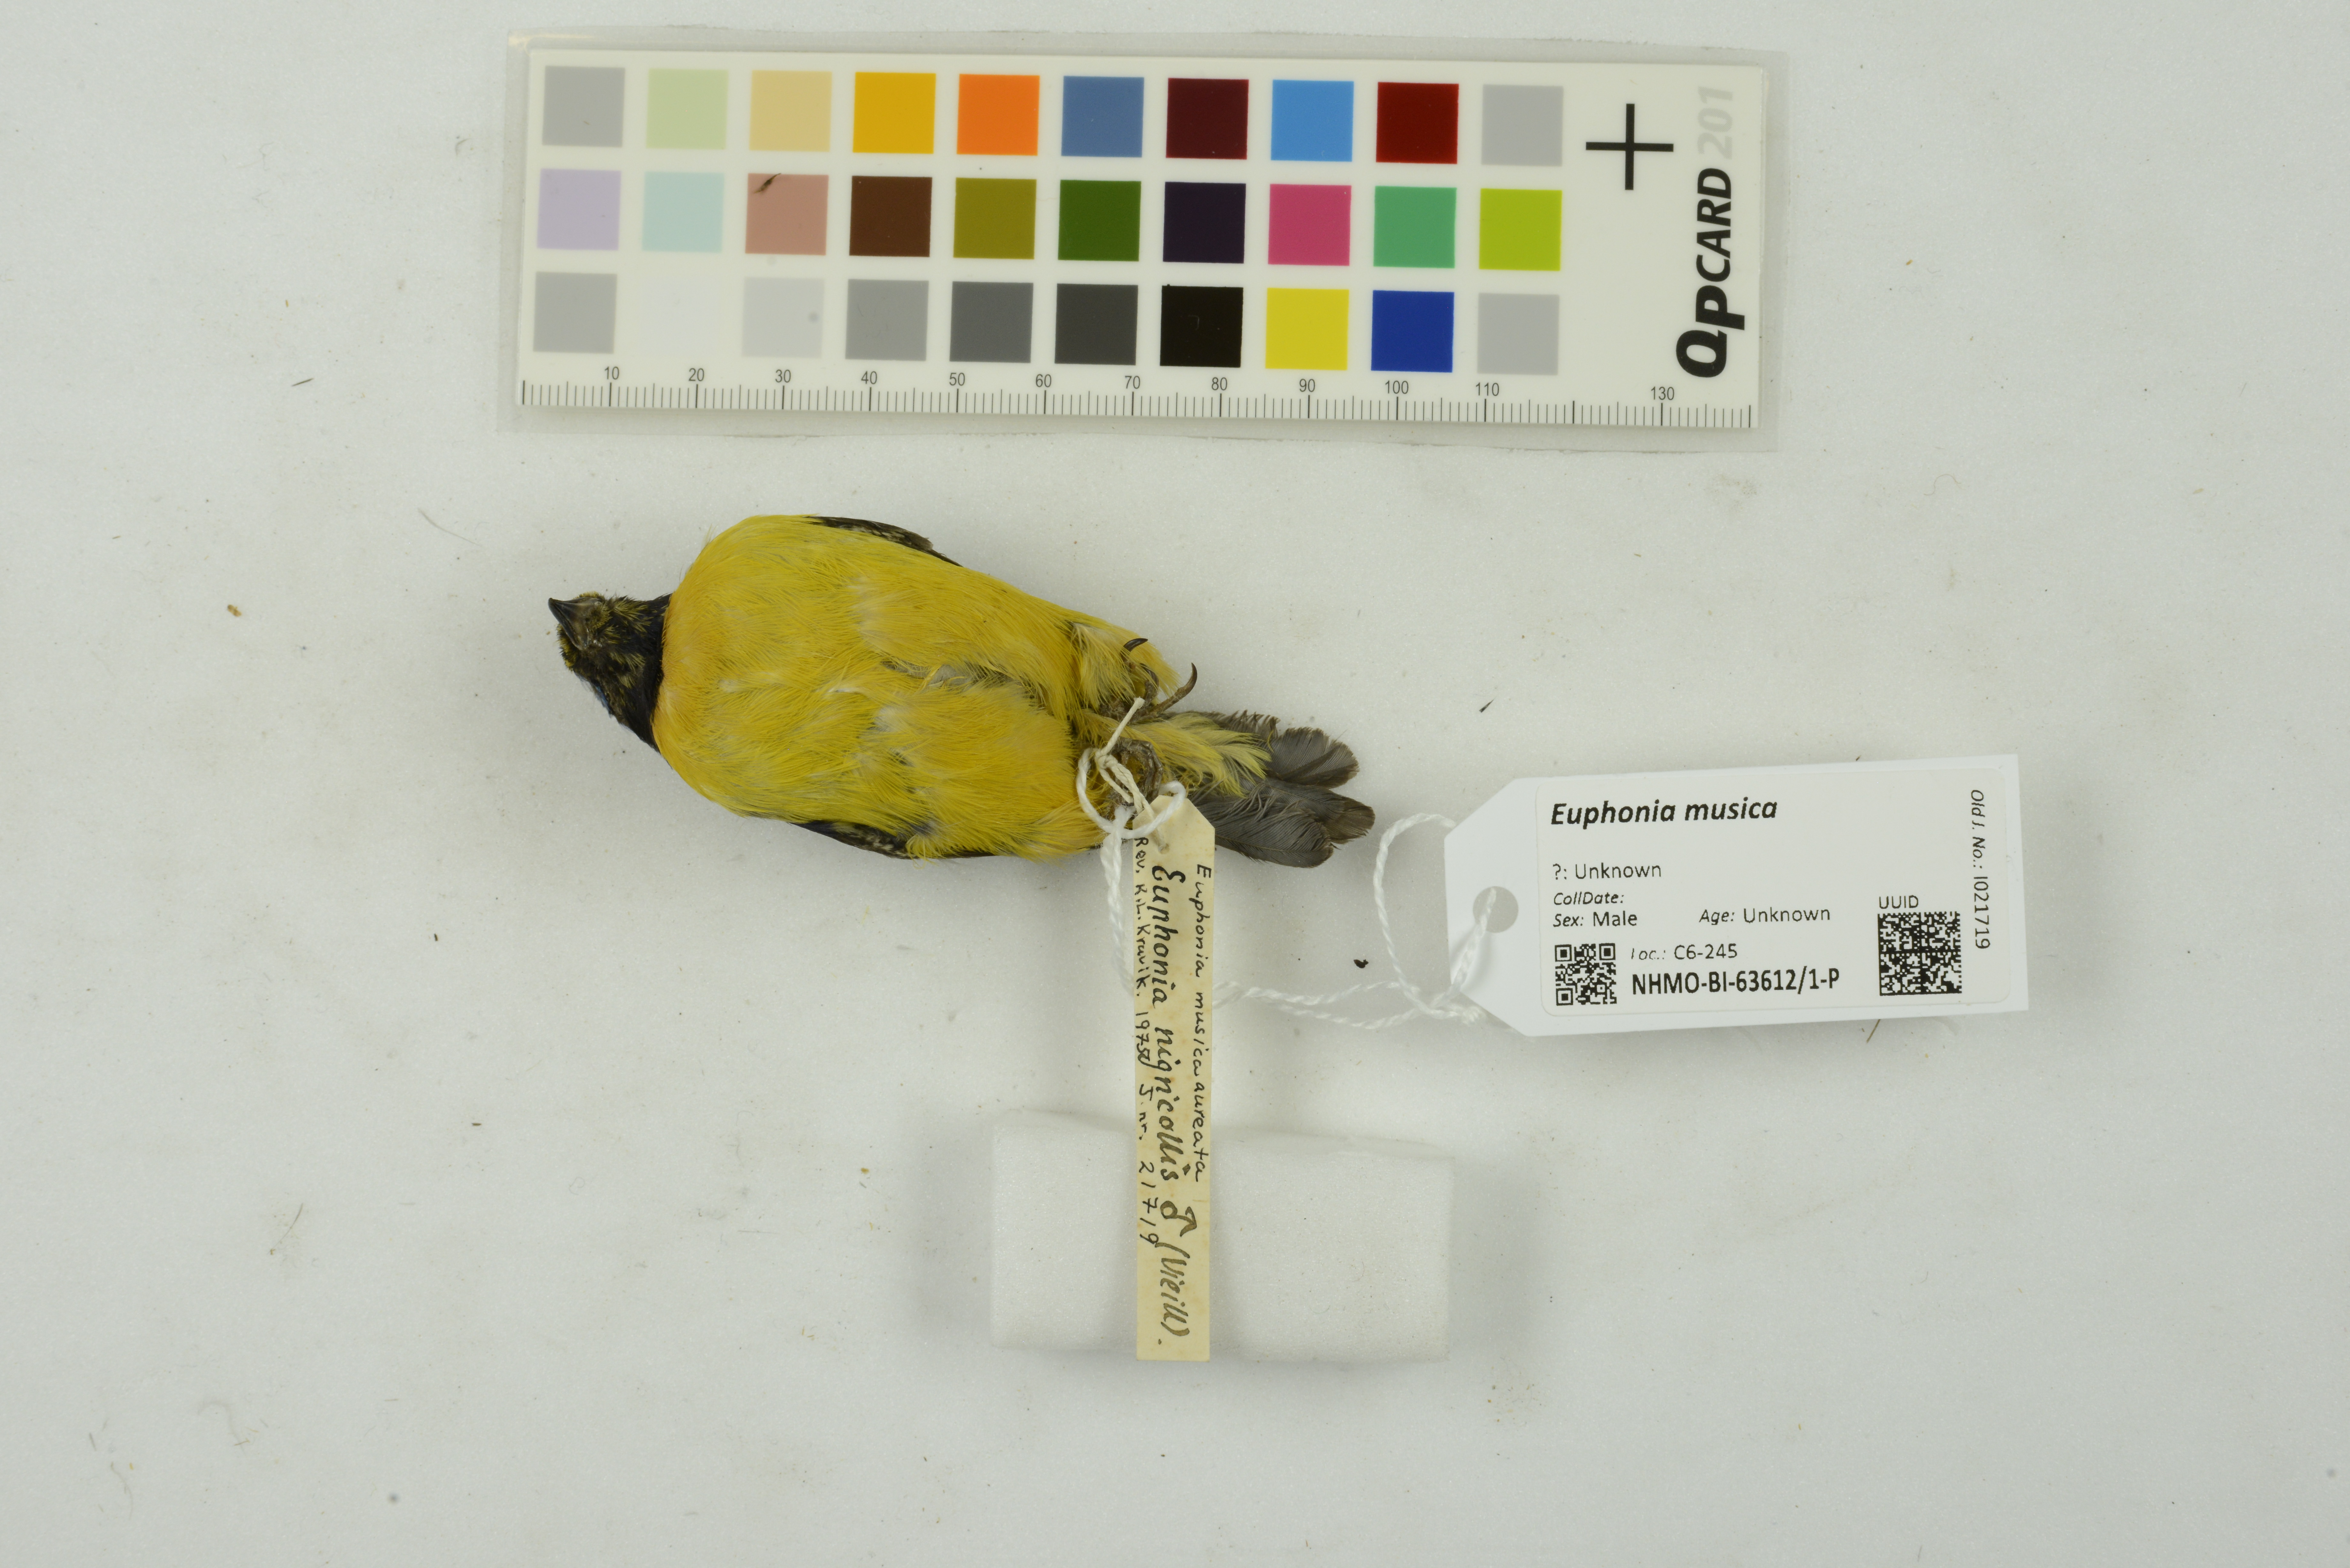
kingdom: Animalia
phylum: Chordata
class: Aves
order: Passeriformes
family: Fringillidae
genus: Euphonia
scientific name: Euphonia musica
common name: Antillean euphonia
